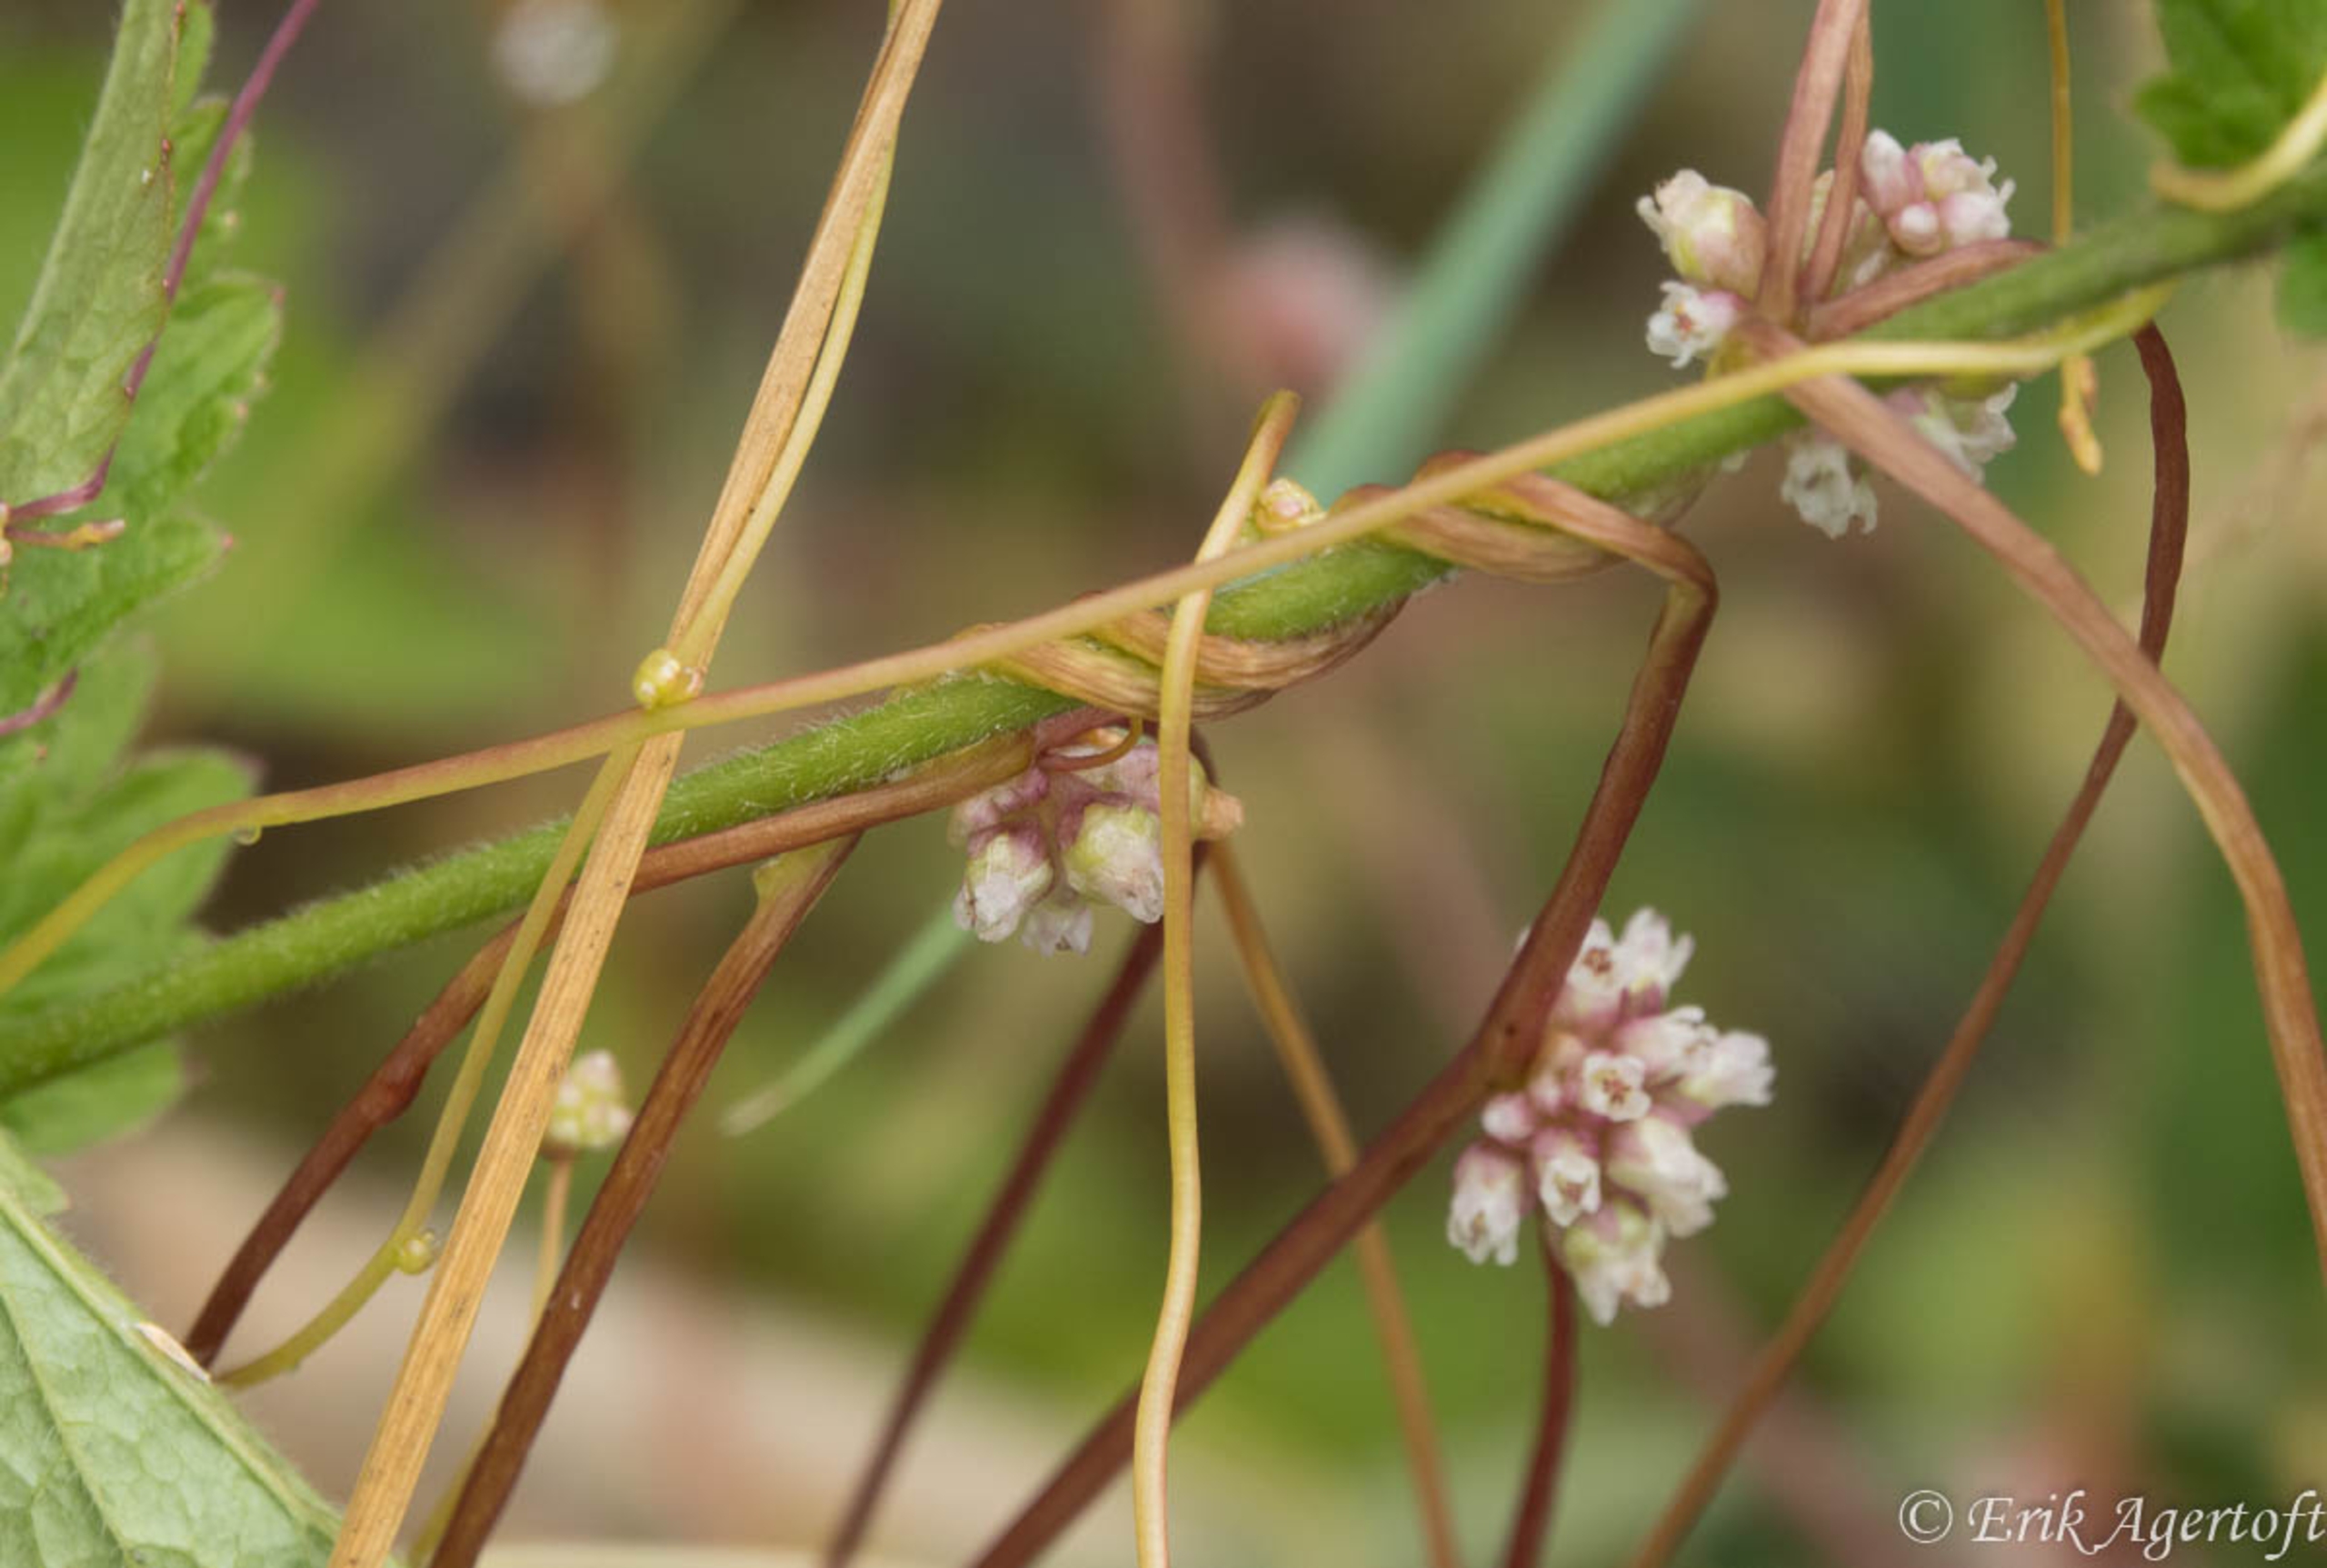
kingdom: Plantae
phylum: Tracheophyta
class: Magnoliopsida
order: Solanales
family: Convolvulaceae
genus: Cuscuta
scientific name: Cuscuta europaea
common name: Nælde-silke
